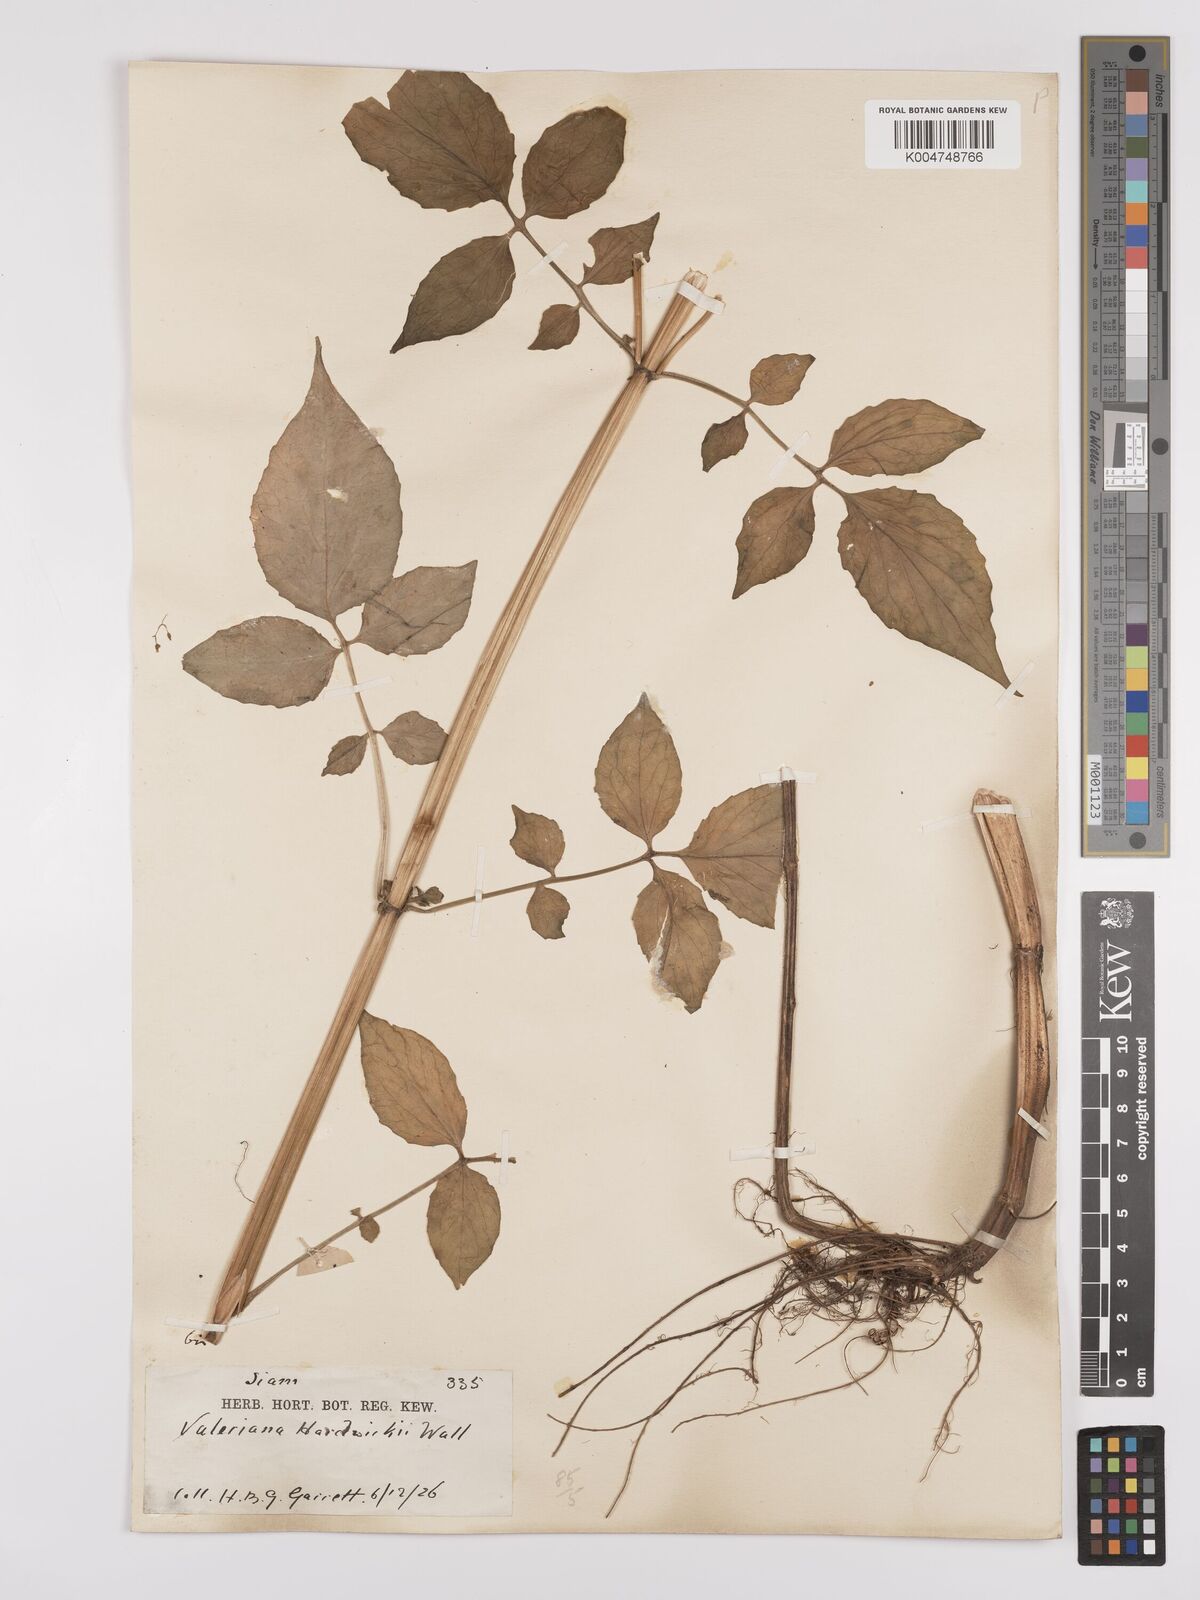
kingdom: Plantae
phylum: Tracheophyta
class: Magnoliopsida
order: Dipsacales
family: Caprifoliaceae
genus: Valeriana
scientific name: Valeriana hardwickei
